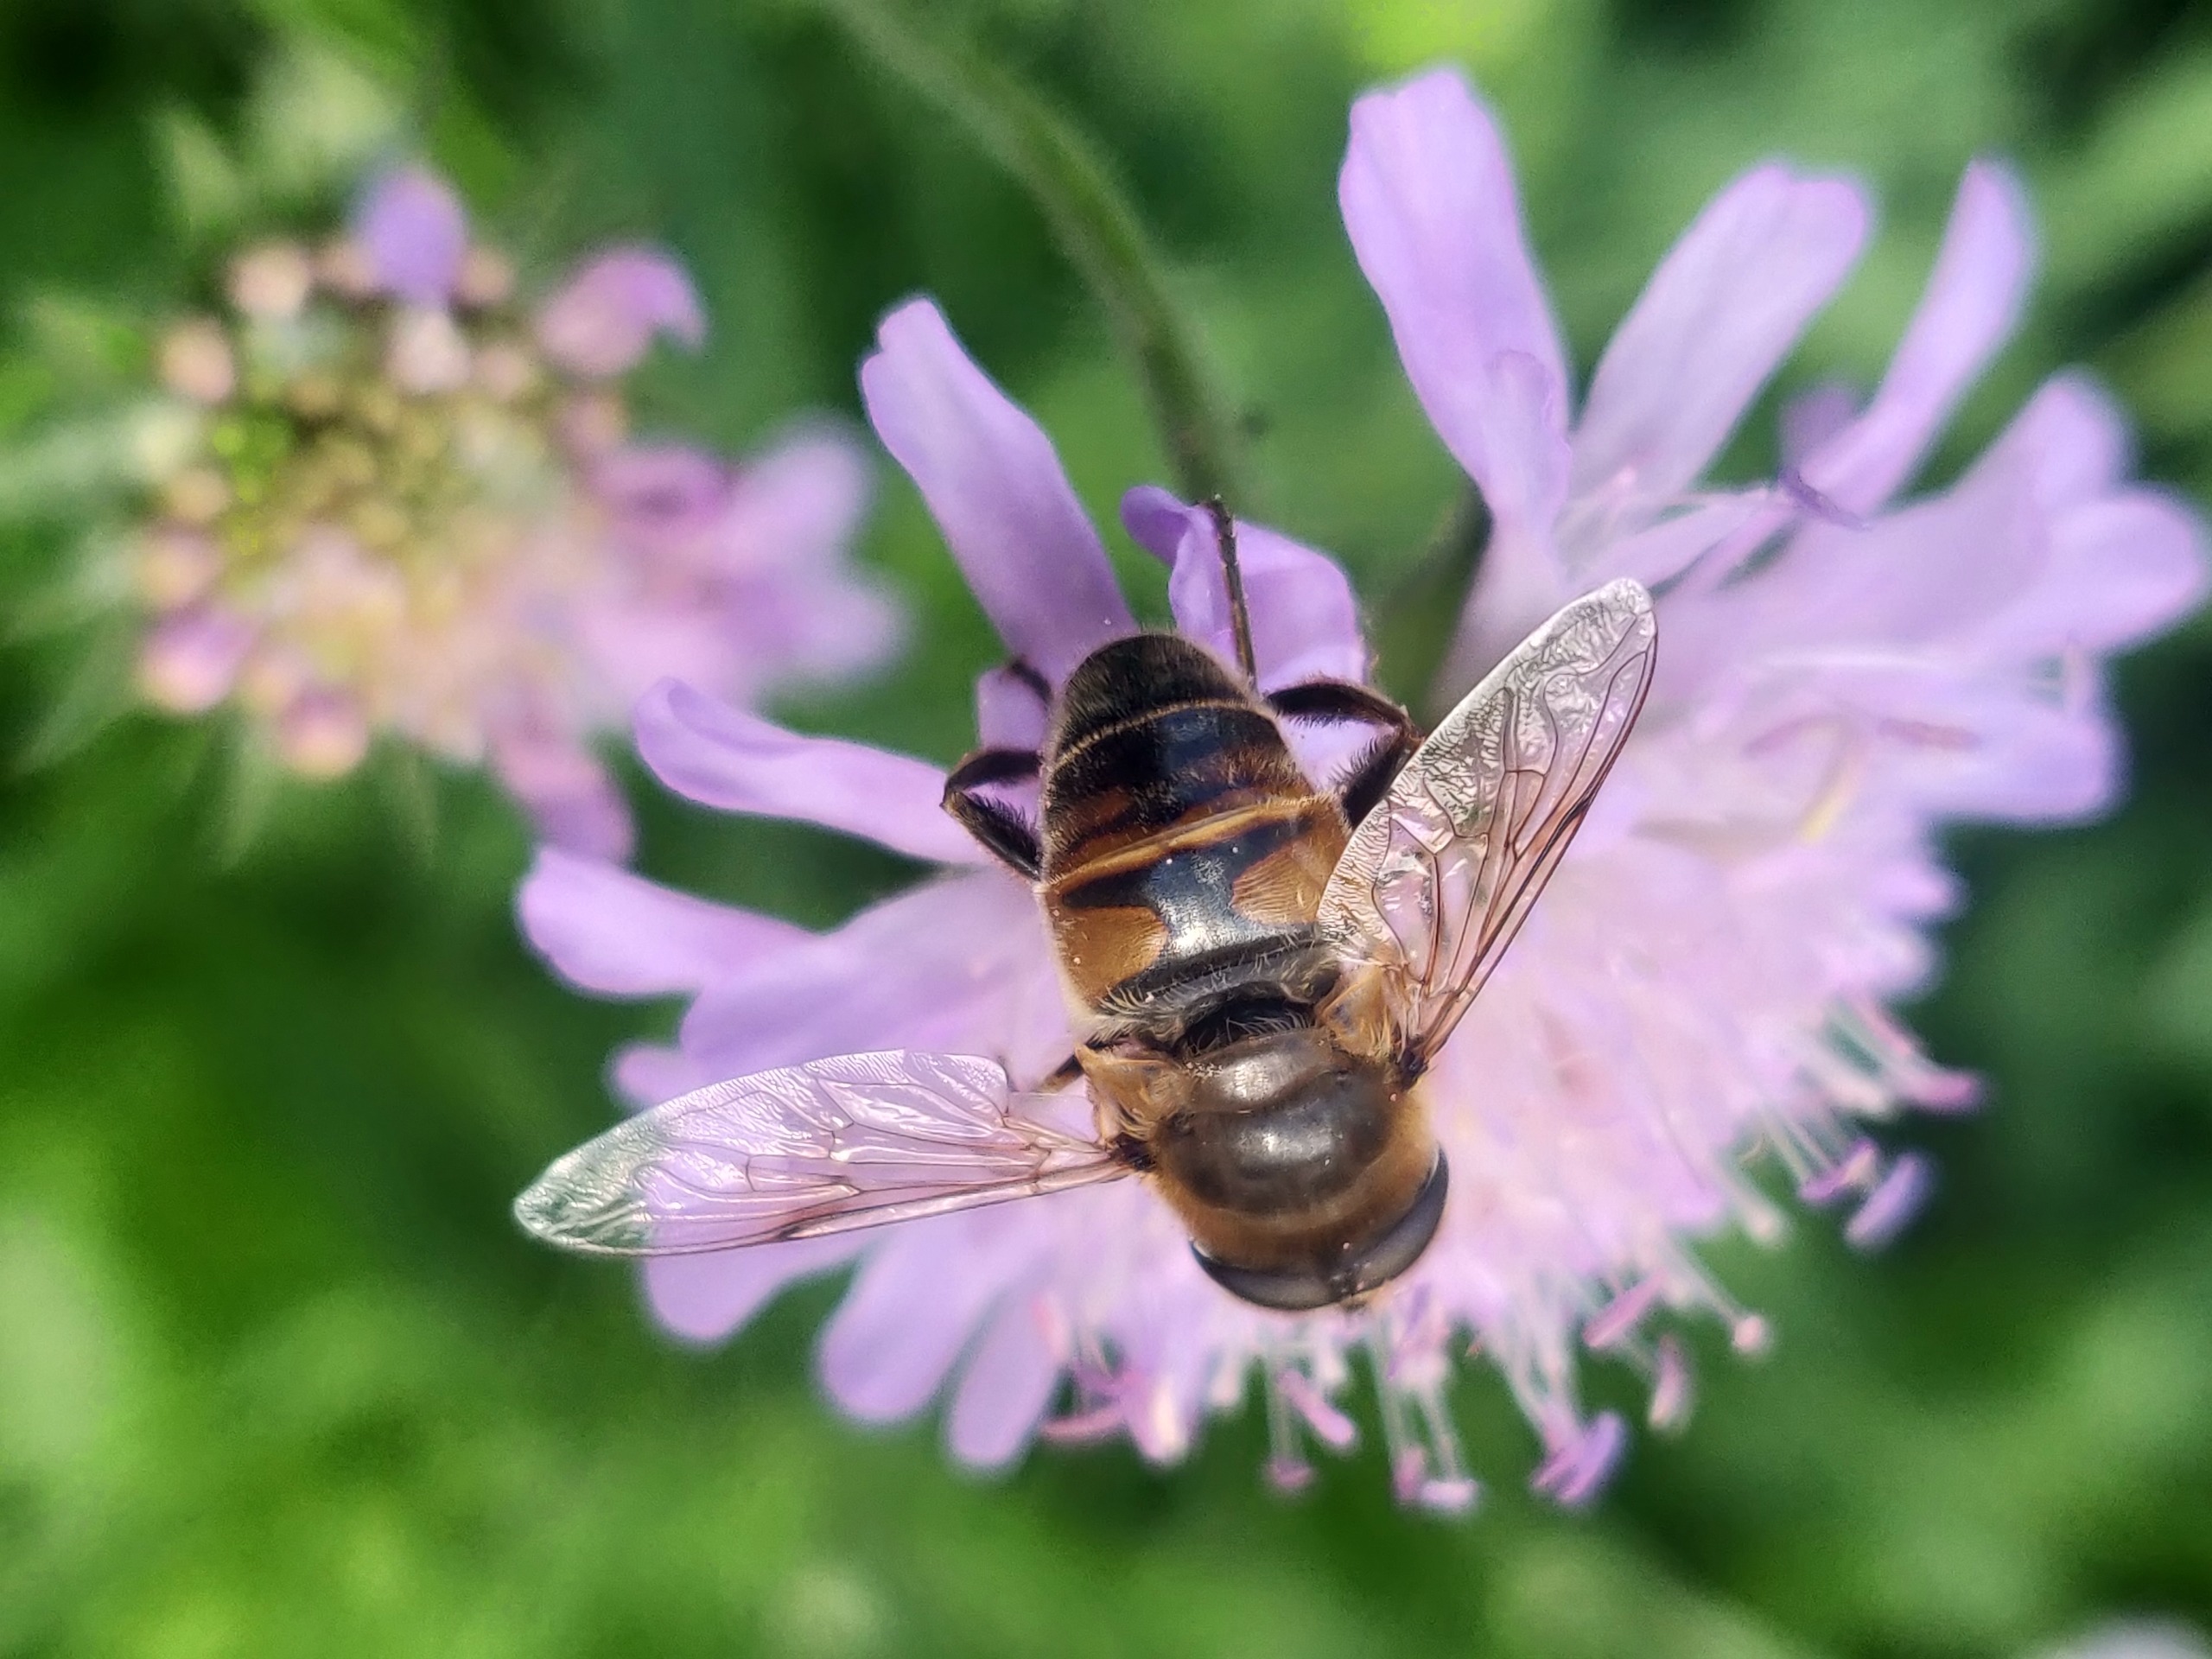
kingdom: Animalia
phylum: Arthropoda
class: Insecta
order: Diptera
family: Syrphidae
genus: Eristalis
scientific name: Eristalis tenax
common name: Droneflue
